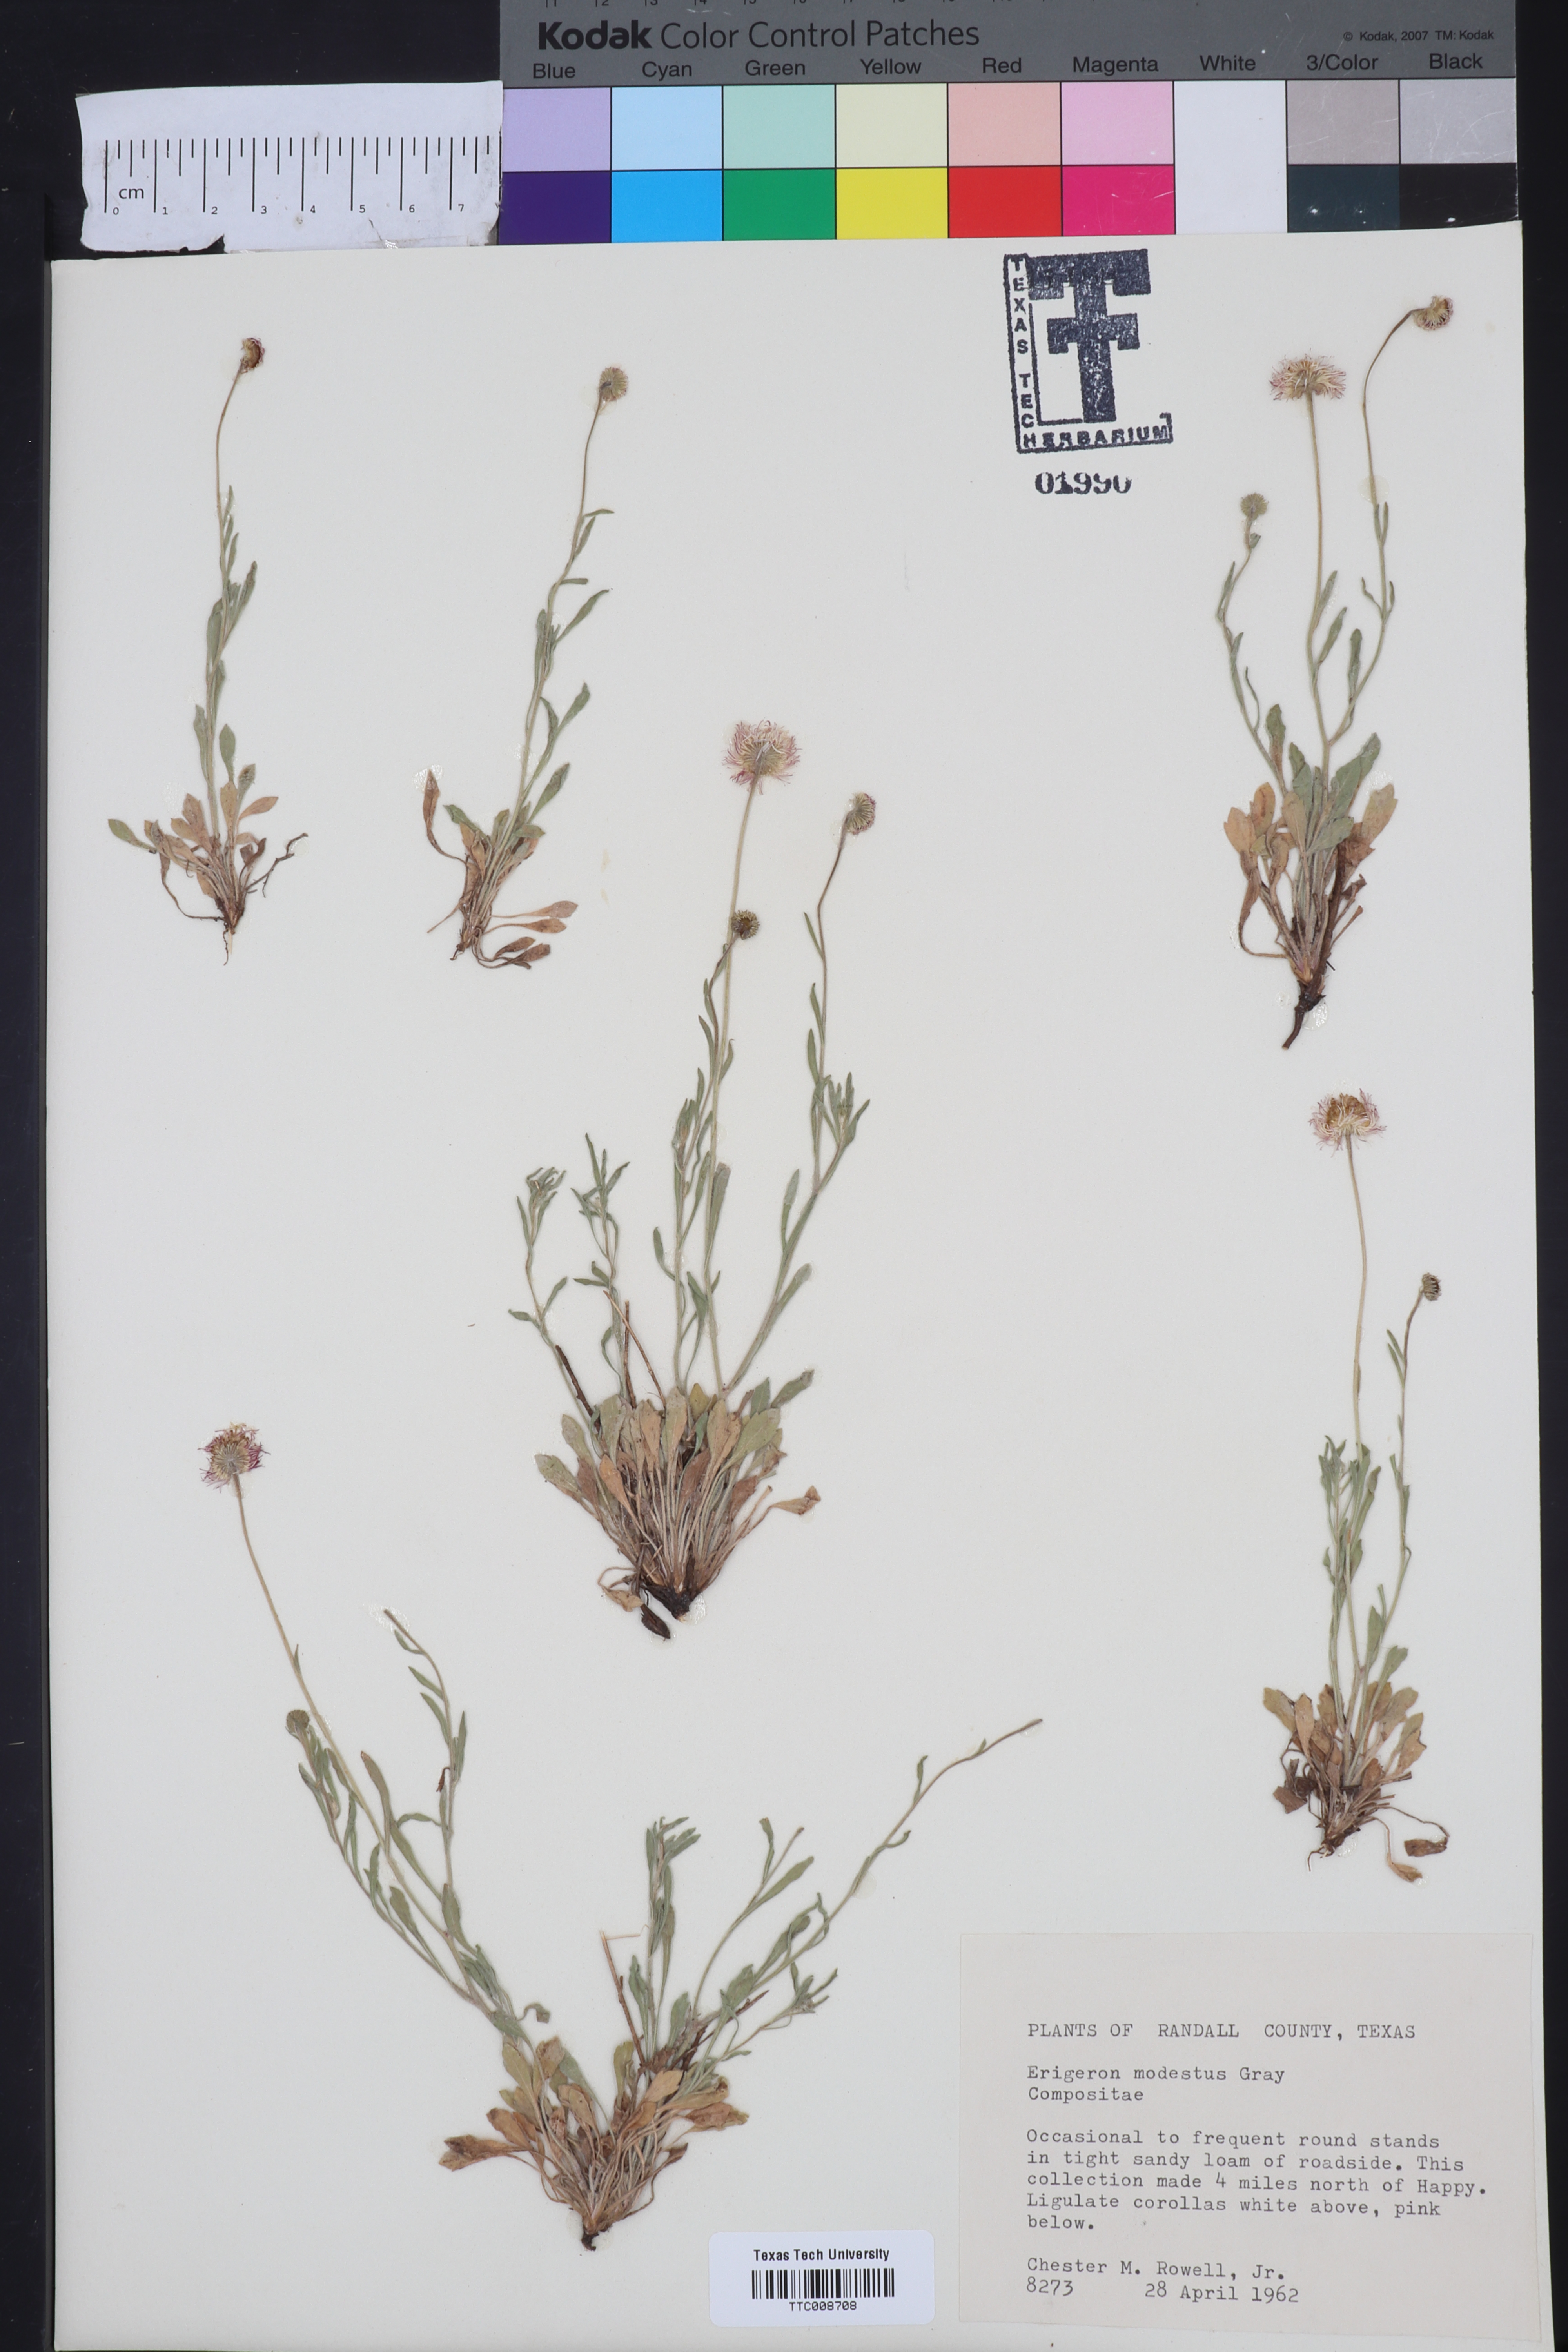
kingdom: Plantae
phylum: Tracheophyta
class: Magnoliopsida
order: Asterales
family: Asteraceae
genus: Erigeron
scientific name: Erigeron modestus
